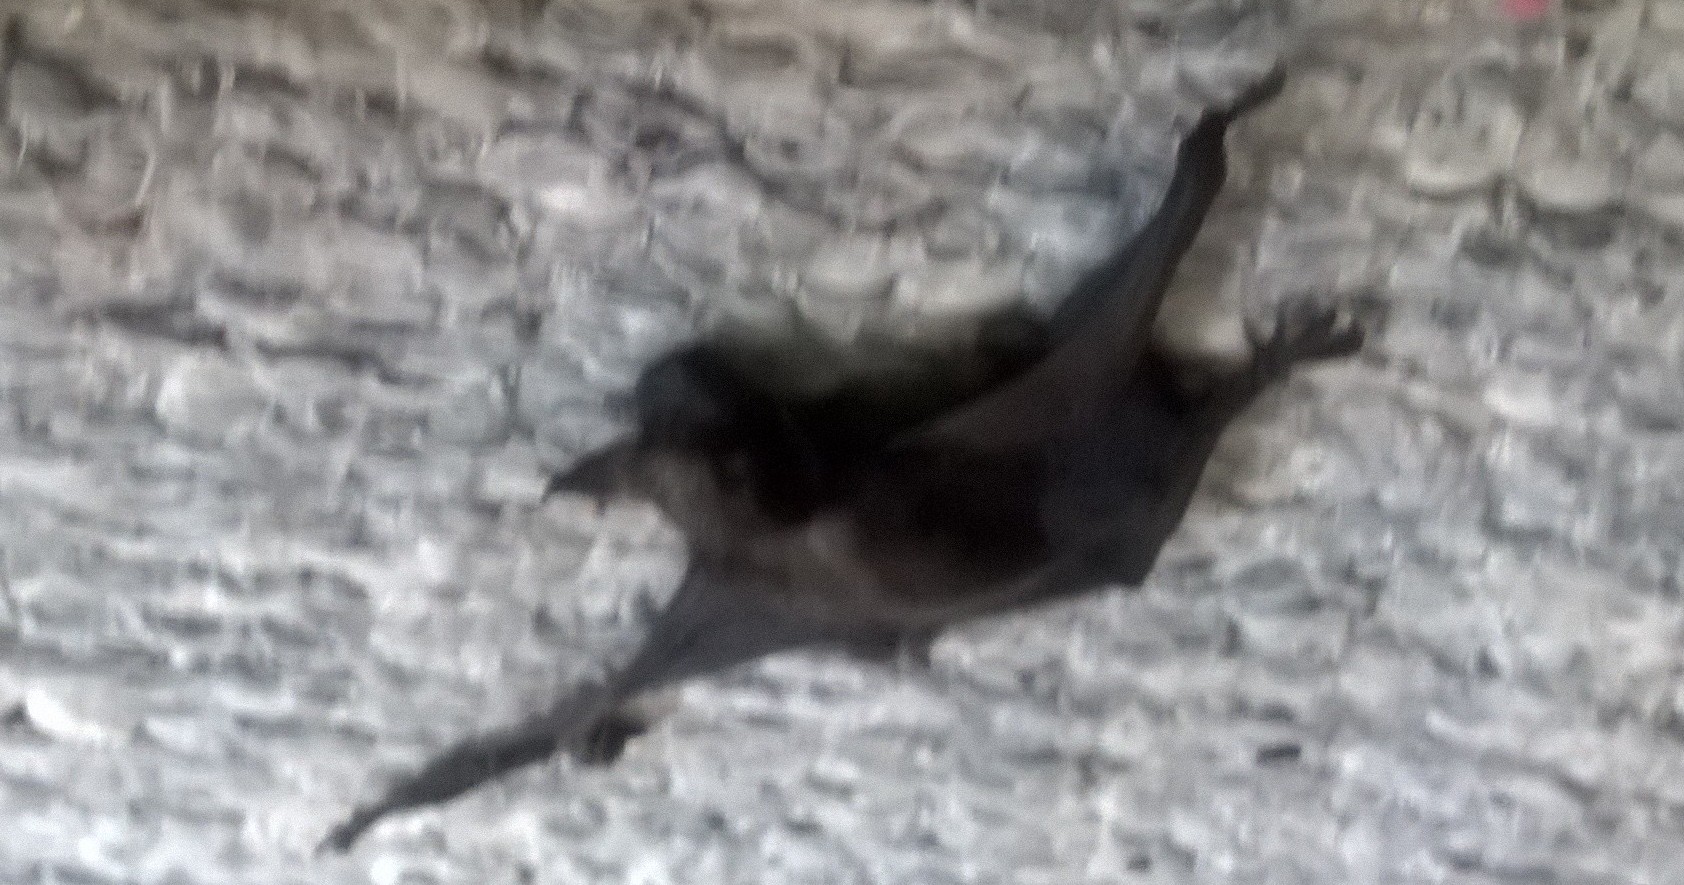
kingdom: Animalia
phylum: Chordata
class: Mammalia
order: Chiroptera
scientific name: Chiroptera
